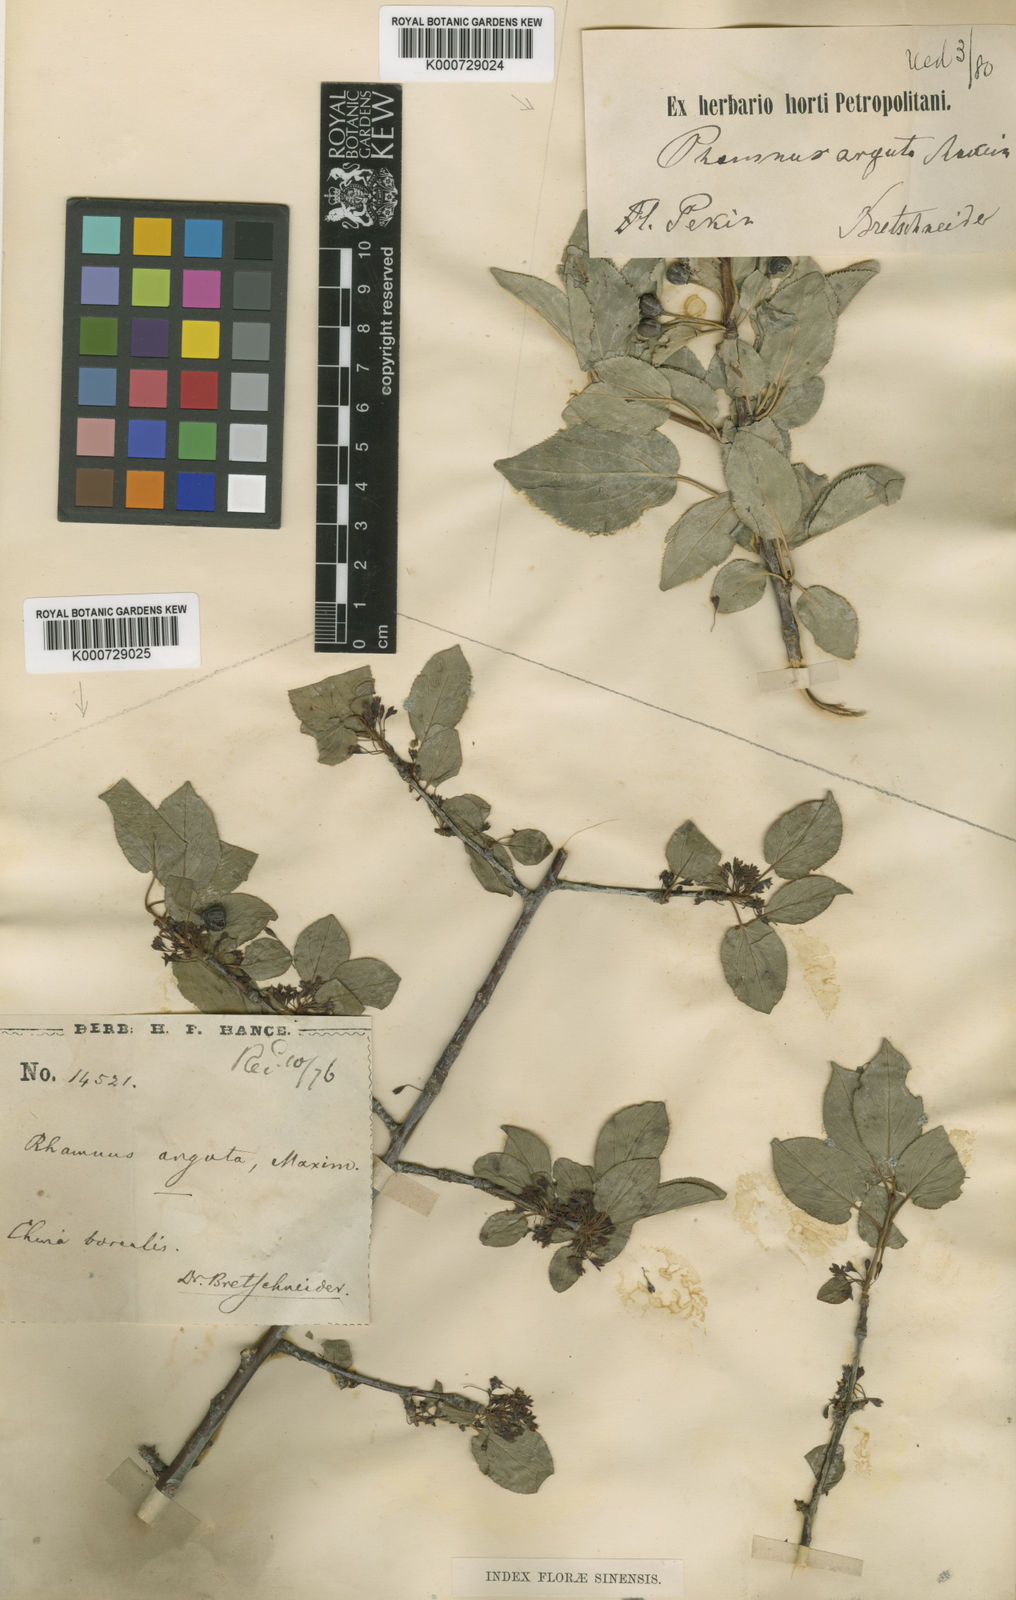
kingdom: Plantae
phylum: Tracheophyta
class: Magnoliopsida
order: Rosales
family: Rhamnaceae
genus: Rhamnus
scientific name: Rhamnus arguta
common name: Sharp-tooth buckthorn
